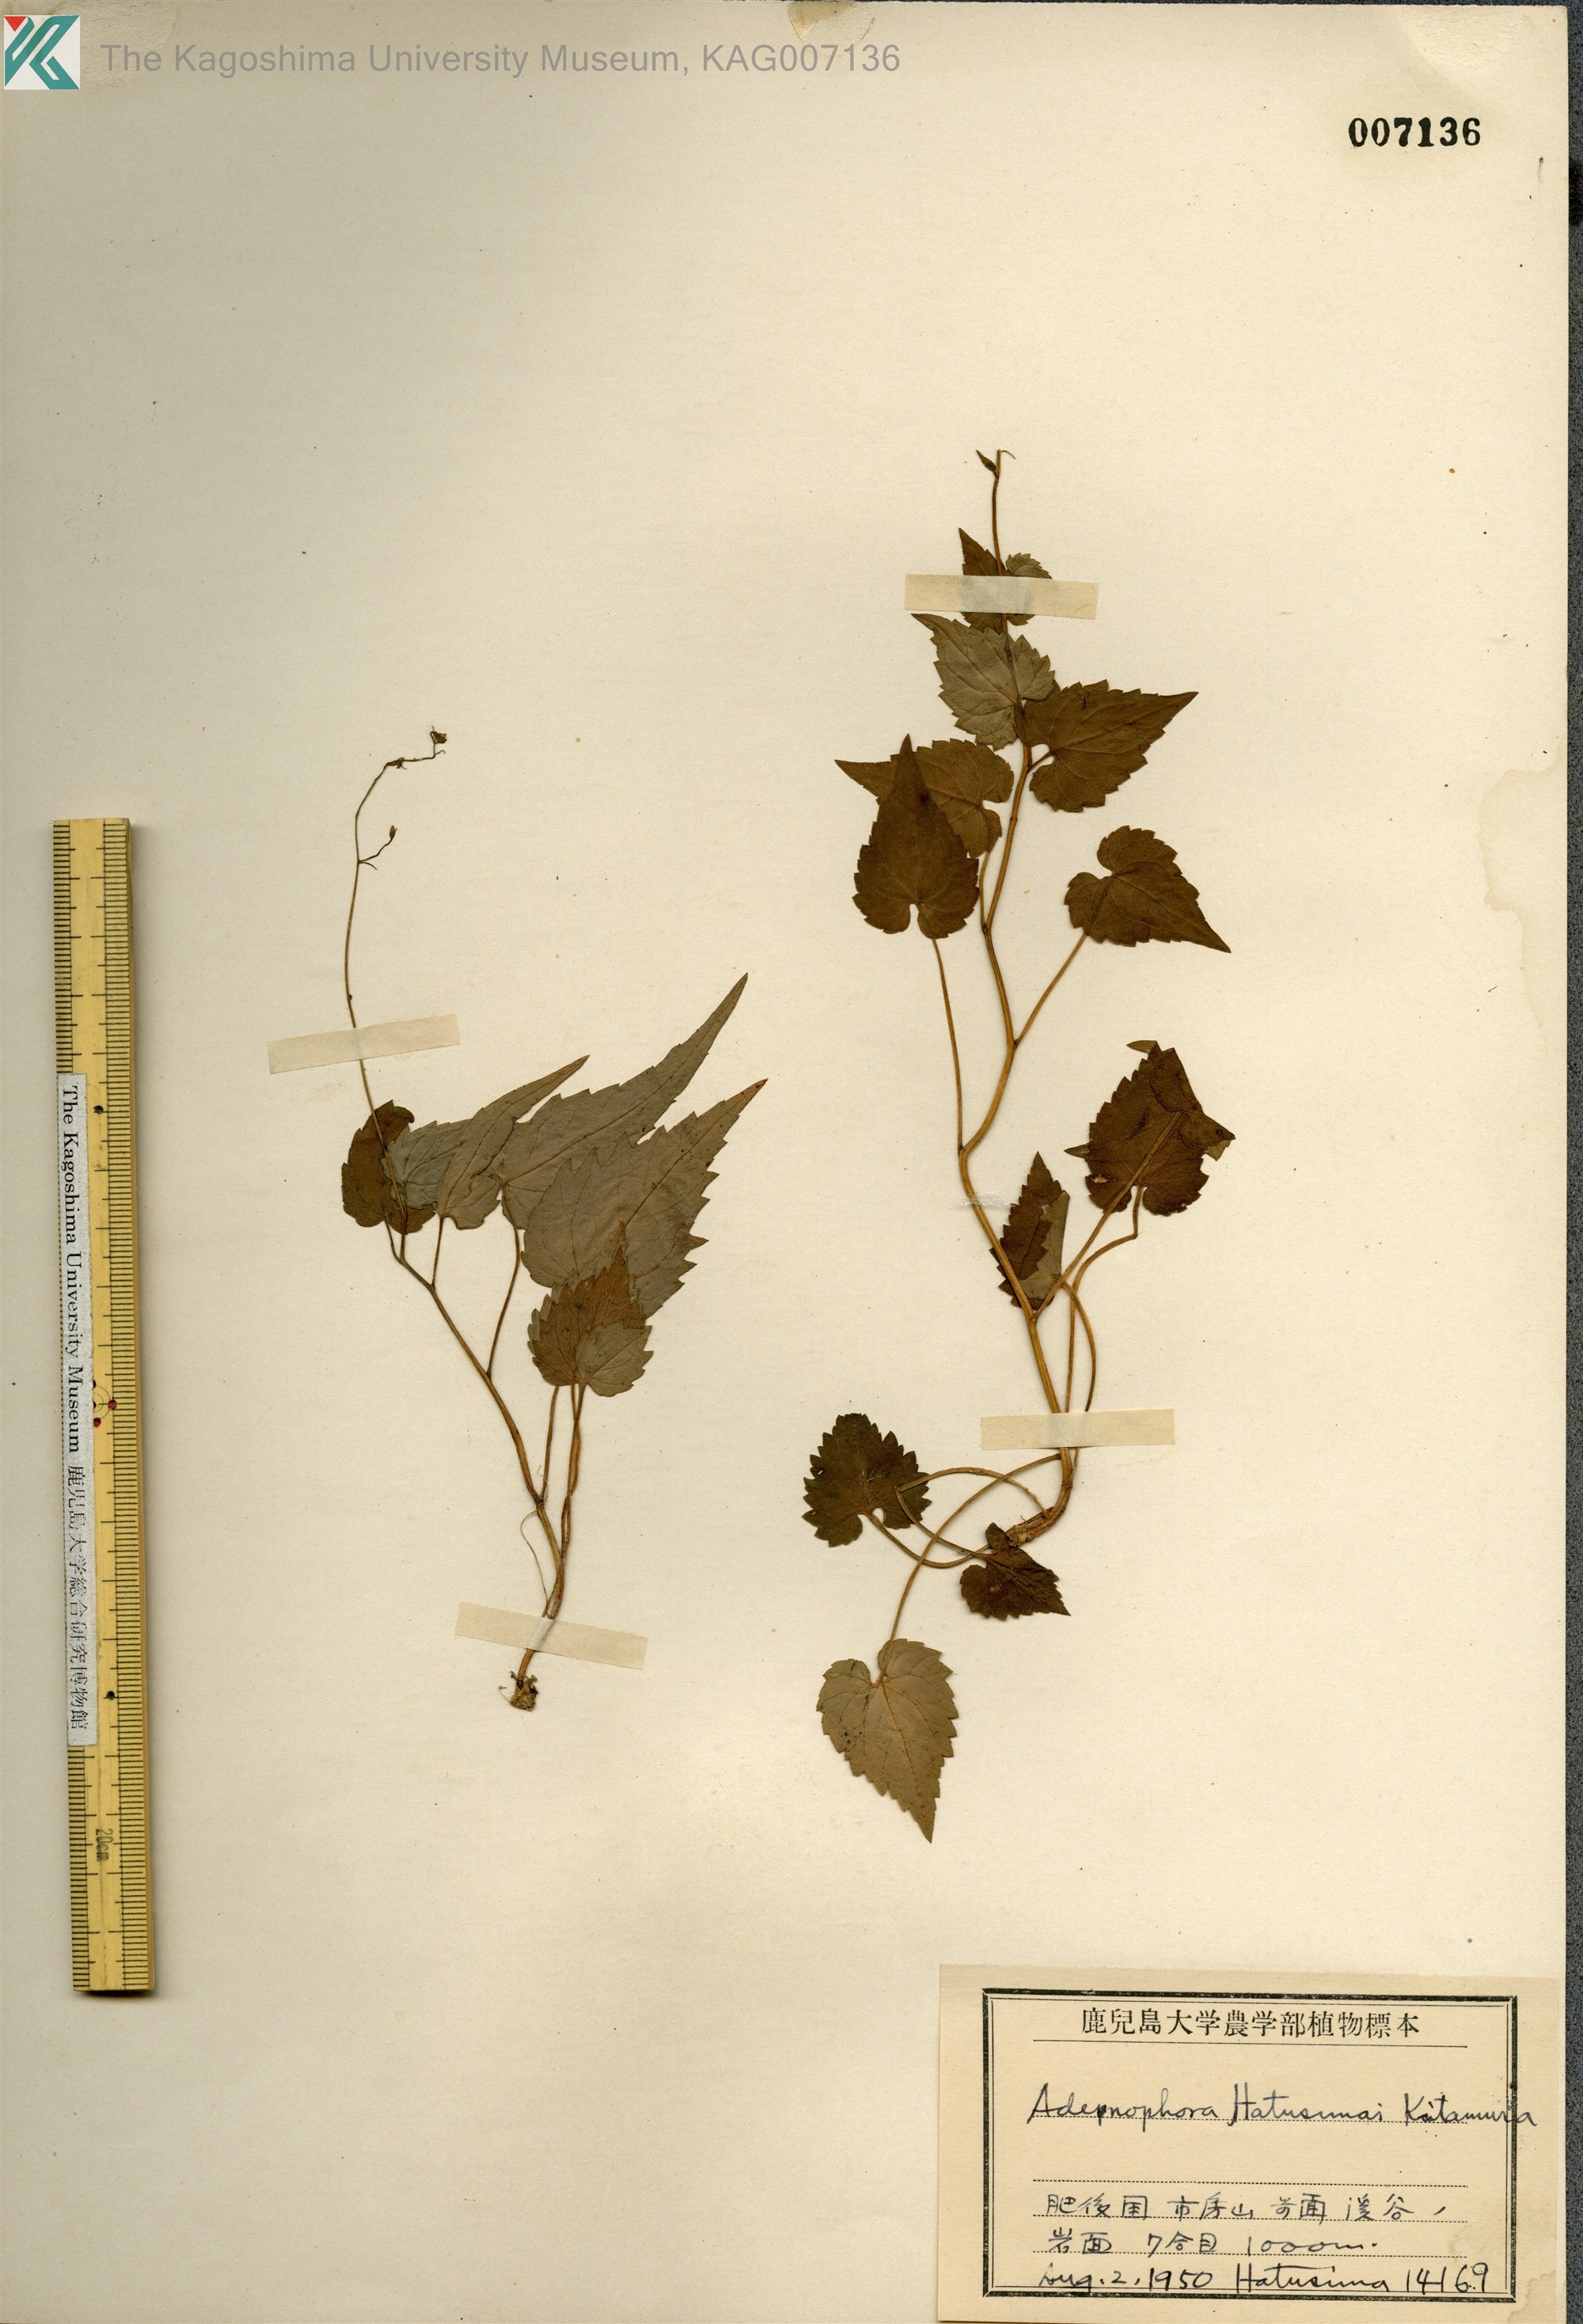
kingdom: Plantae
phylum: Tracheophyta
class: Magnoliopsida
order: Asterales
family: Campanulaceae
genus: Adenophora
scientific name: Adenophora hatsushimae
